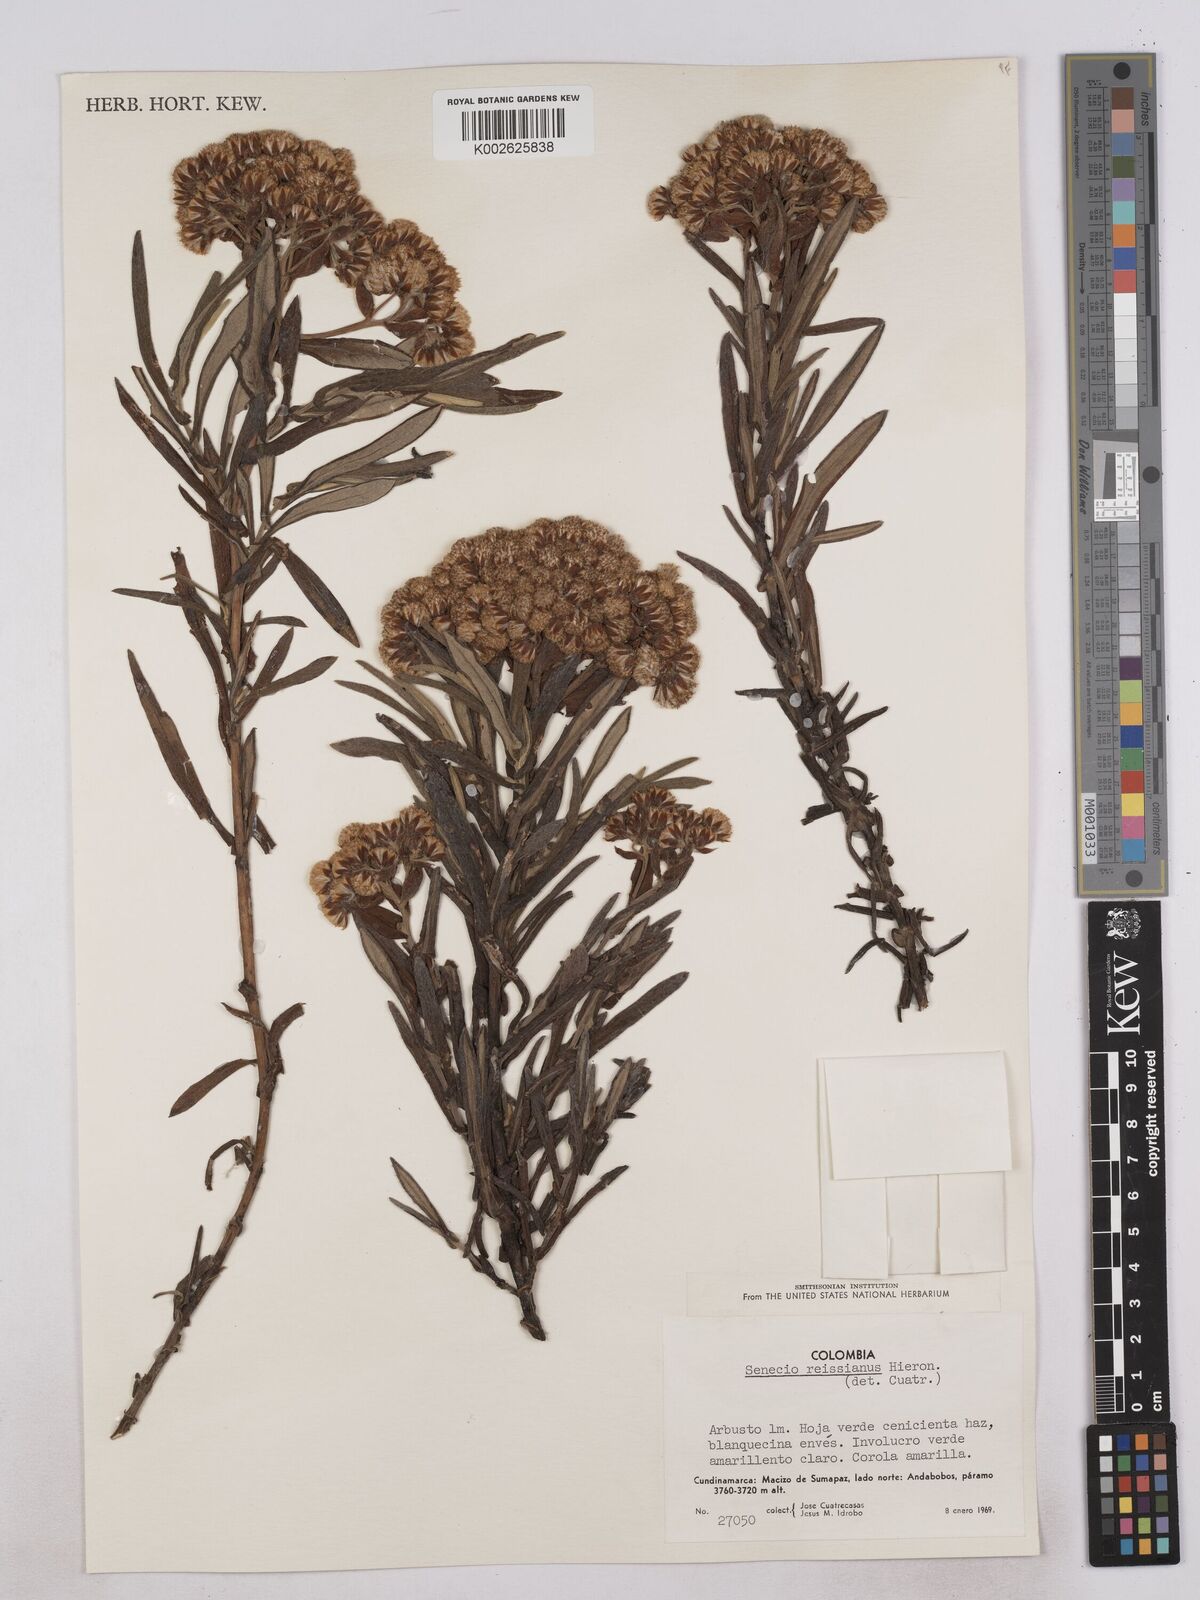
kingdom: Plantae
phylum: Tracheophyta
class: Magnoliopsida
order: Asterales
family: Asteraceae
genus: Monticalia
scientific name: Monticalia
